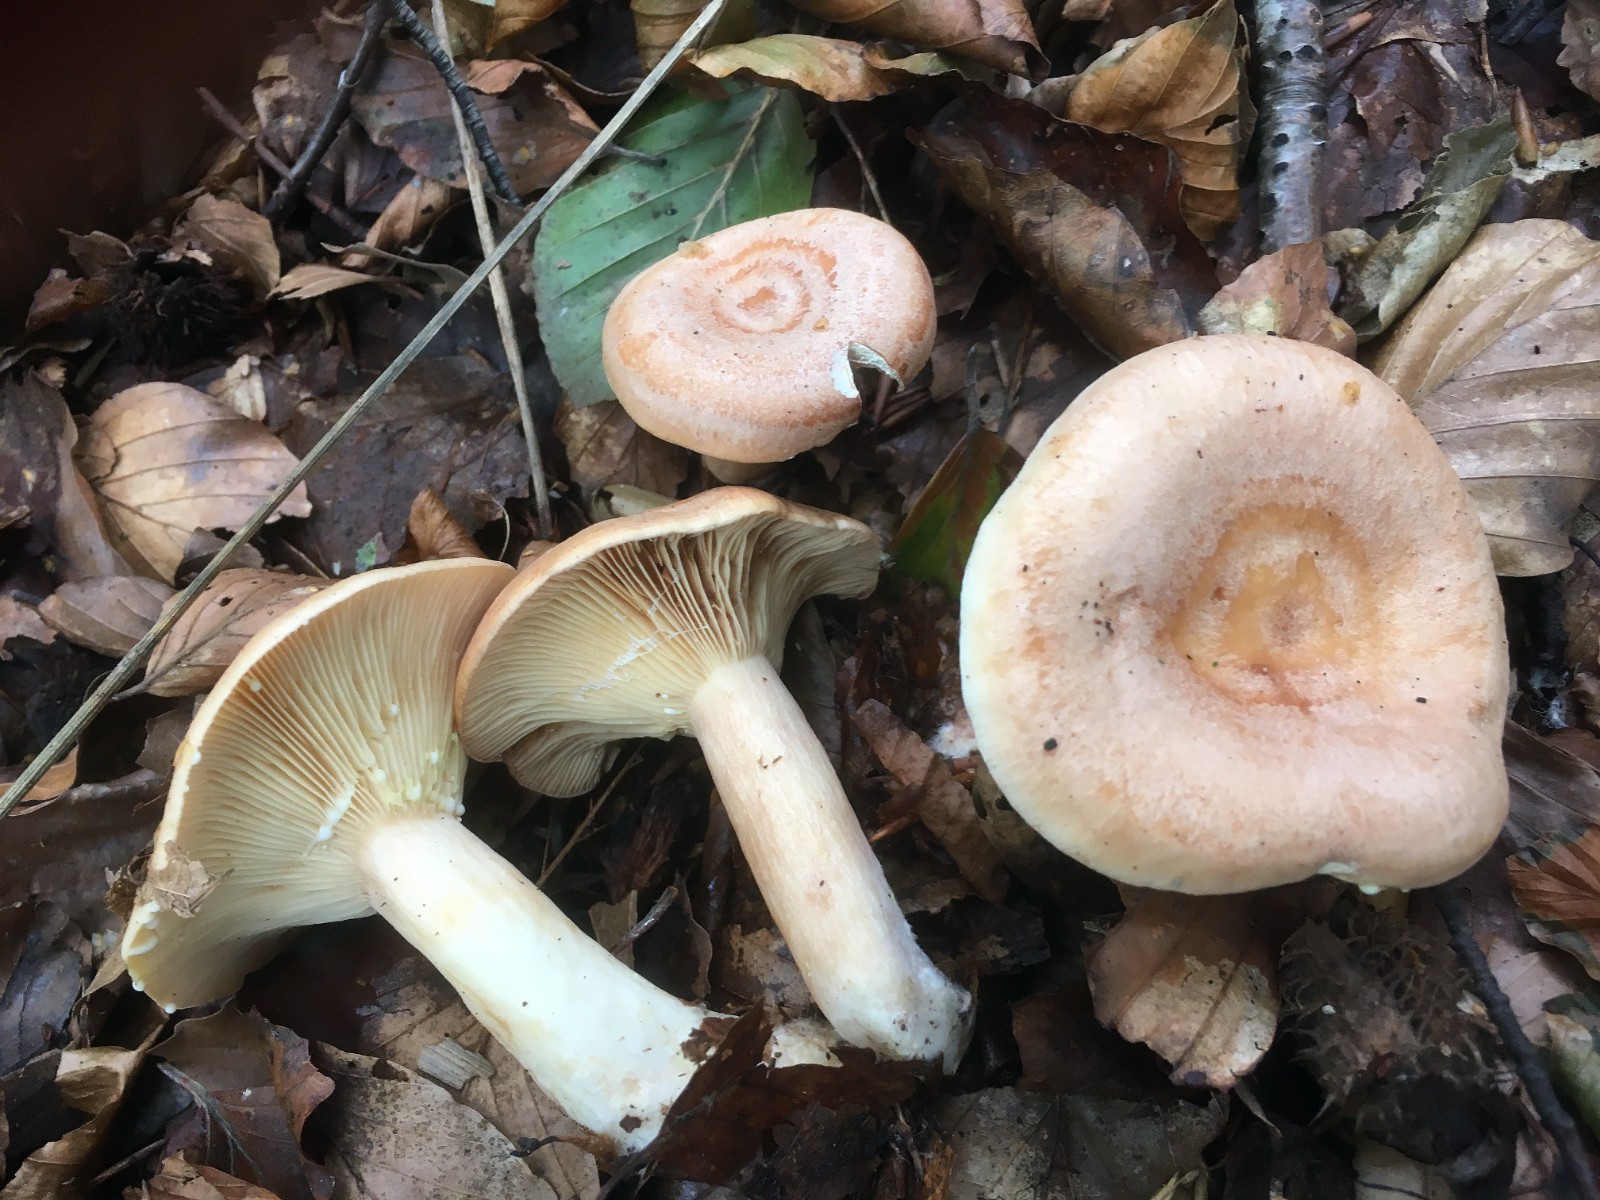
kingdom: Fungi
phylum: Basidiomycota
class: Agaricomycetes
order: Russulales
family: Russulaceae
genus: Lactarius
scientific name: Lactarius chrysorrheus
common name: svovlmælket mælkehat
